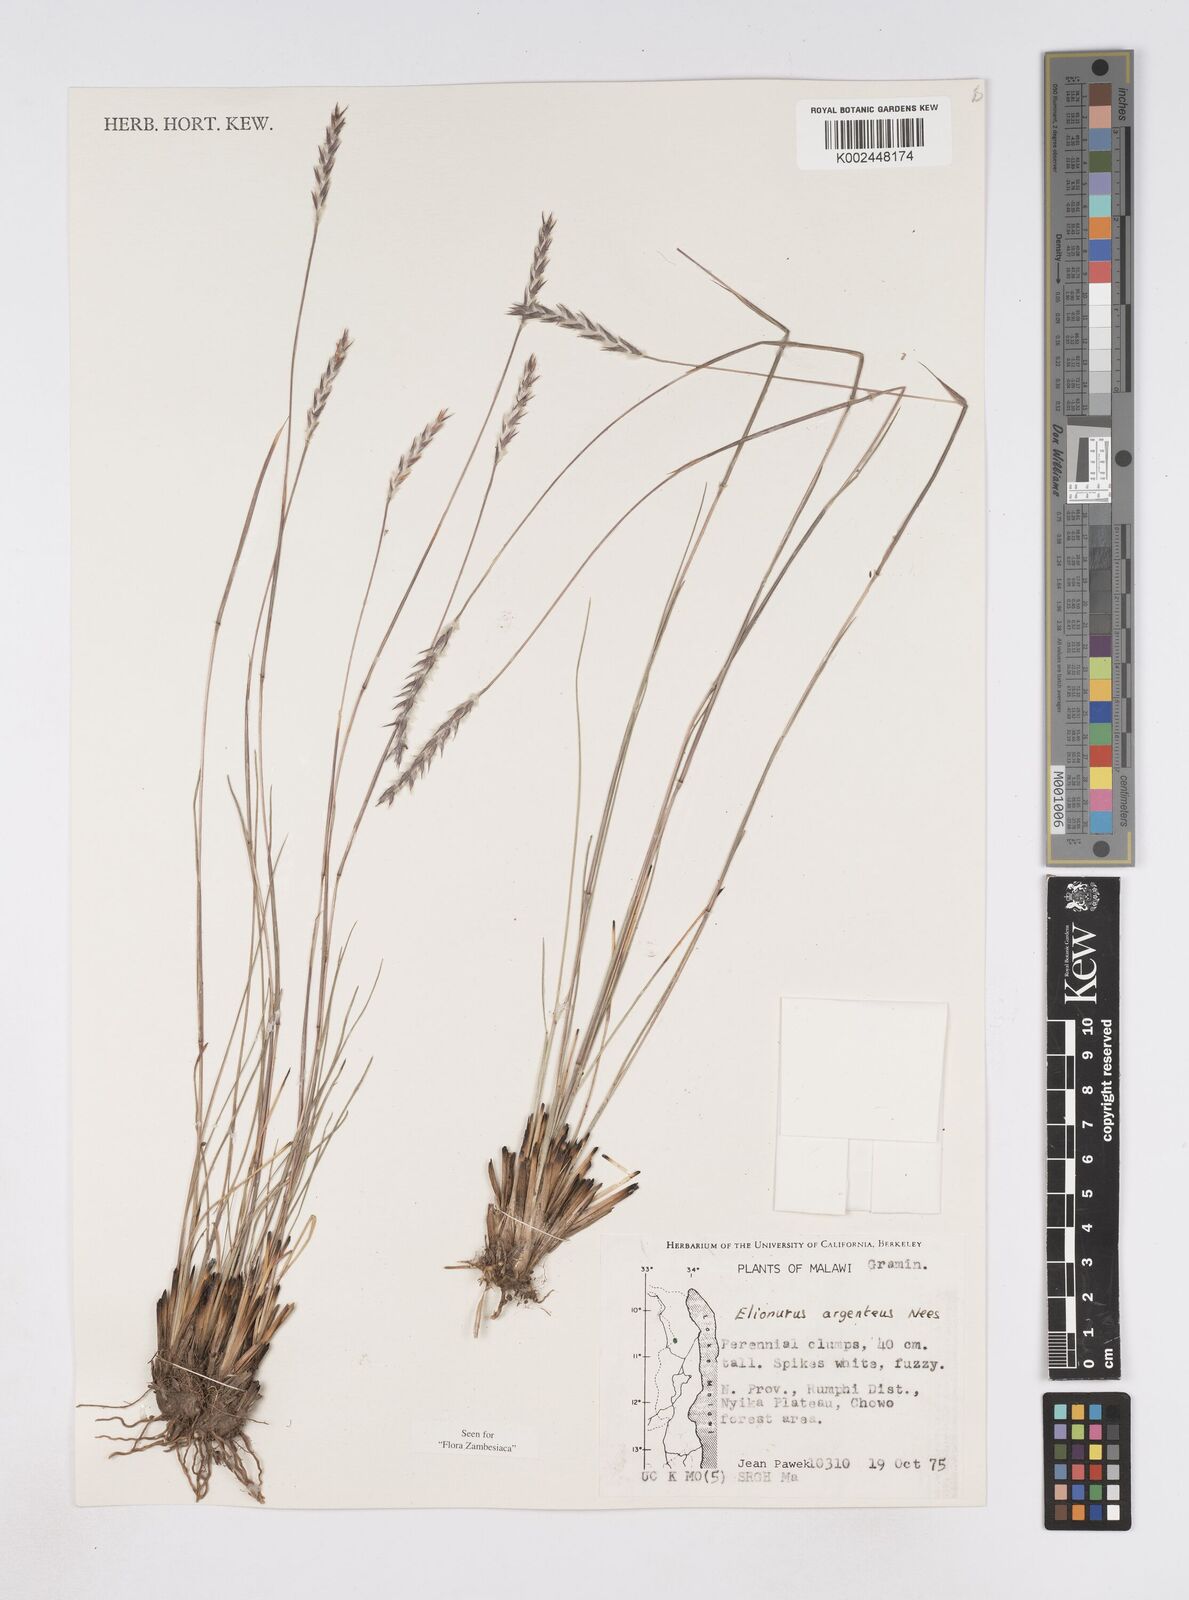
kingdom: Plantae
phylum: Tracheophyta
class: Liliopsida
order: Poales
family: Poaceae
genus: Elionurus
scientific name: Elionurus muticus
